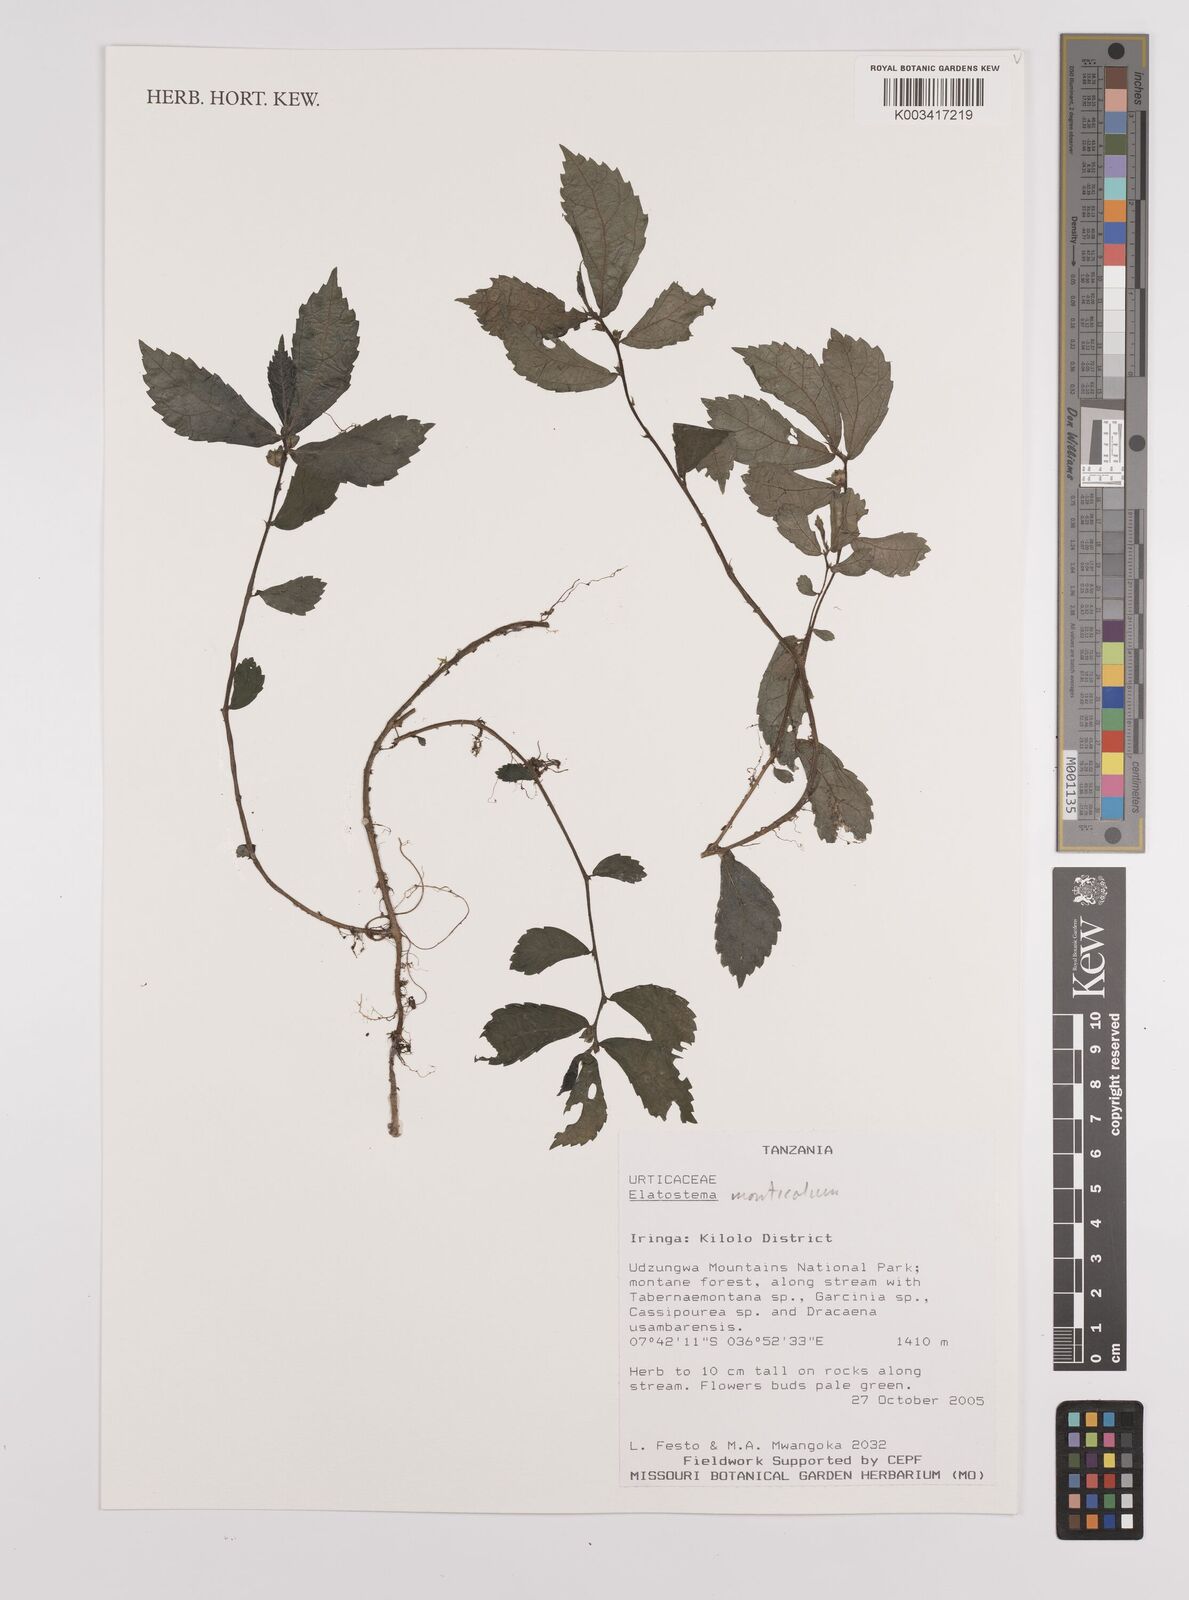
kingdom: Plantae
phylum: Tracheophyta
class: Magnoliopsida
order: Rosales
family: Urticaceae
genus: Elatostema
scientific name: Elatostema monticola
